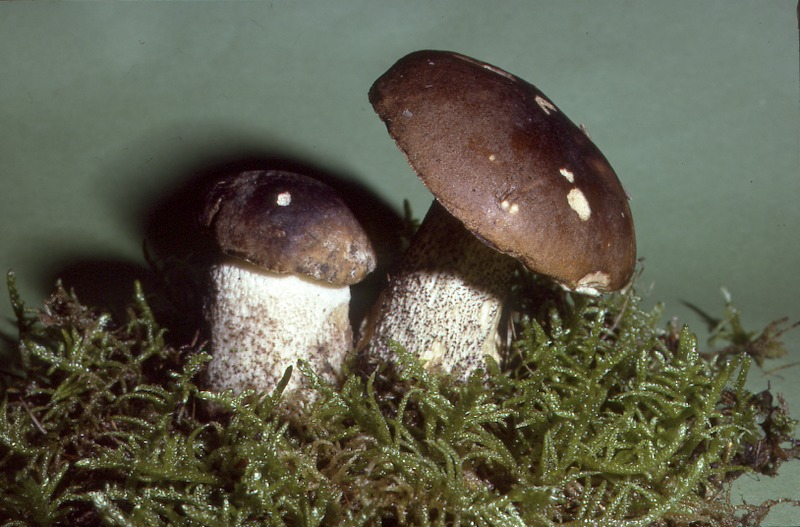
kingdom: Fungi
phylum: Basidiomycota
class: Agaricomycetes
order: Boletales
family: Boletaceae
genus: Leccinum
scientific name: Leccinum duriusculum
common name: Slate bolete
